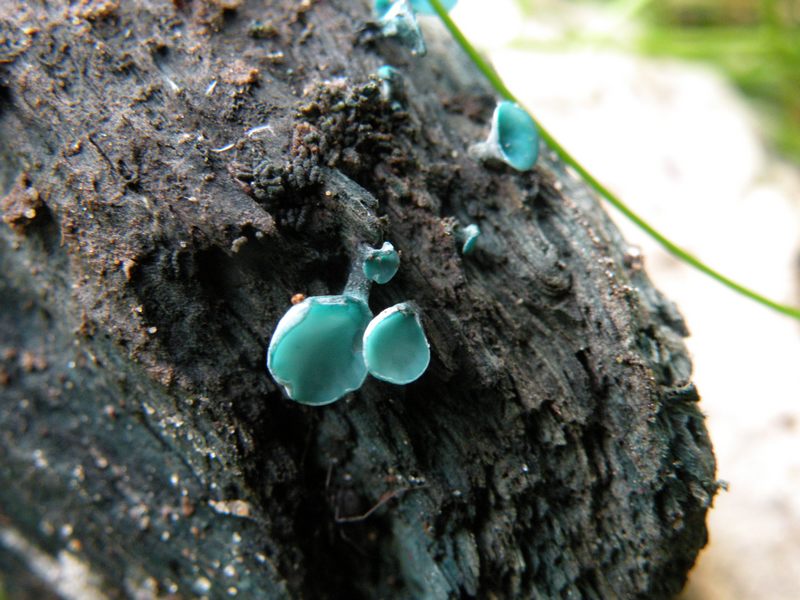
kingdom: Fungi
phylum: Ascomycota
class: Leotiomycetes
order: Helotiales
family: Chlorociboriaceae
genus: Chlorociboria
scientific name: Chlorociboria aeruginascens
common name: almindelig grønskive
